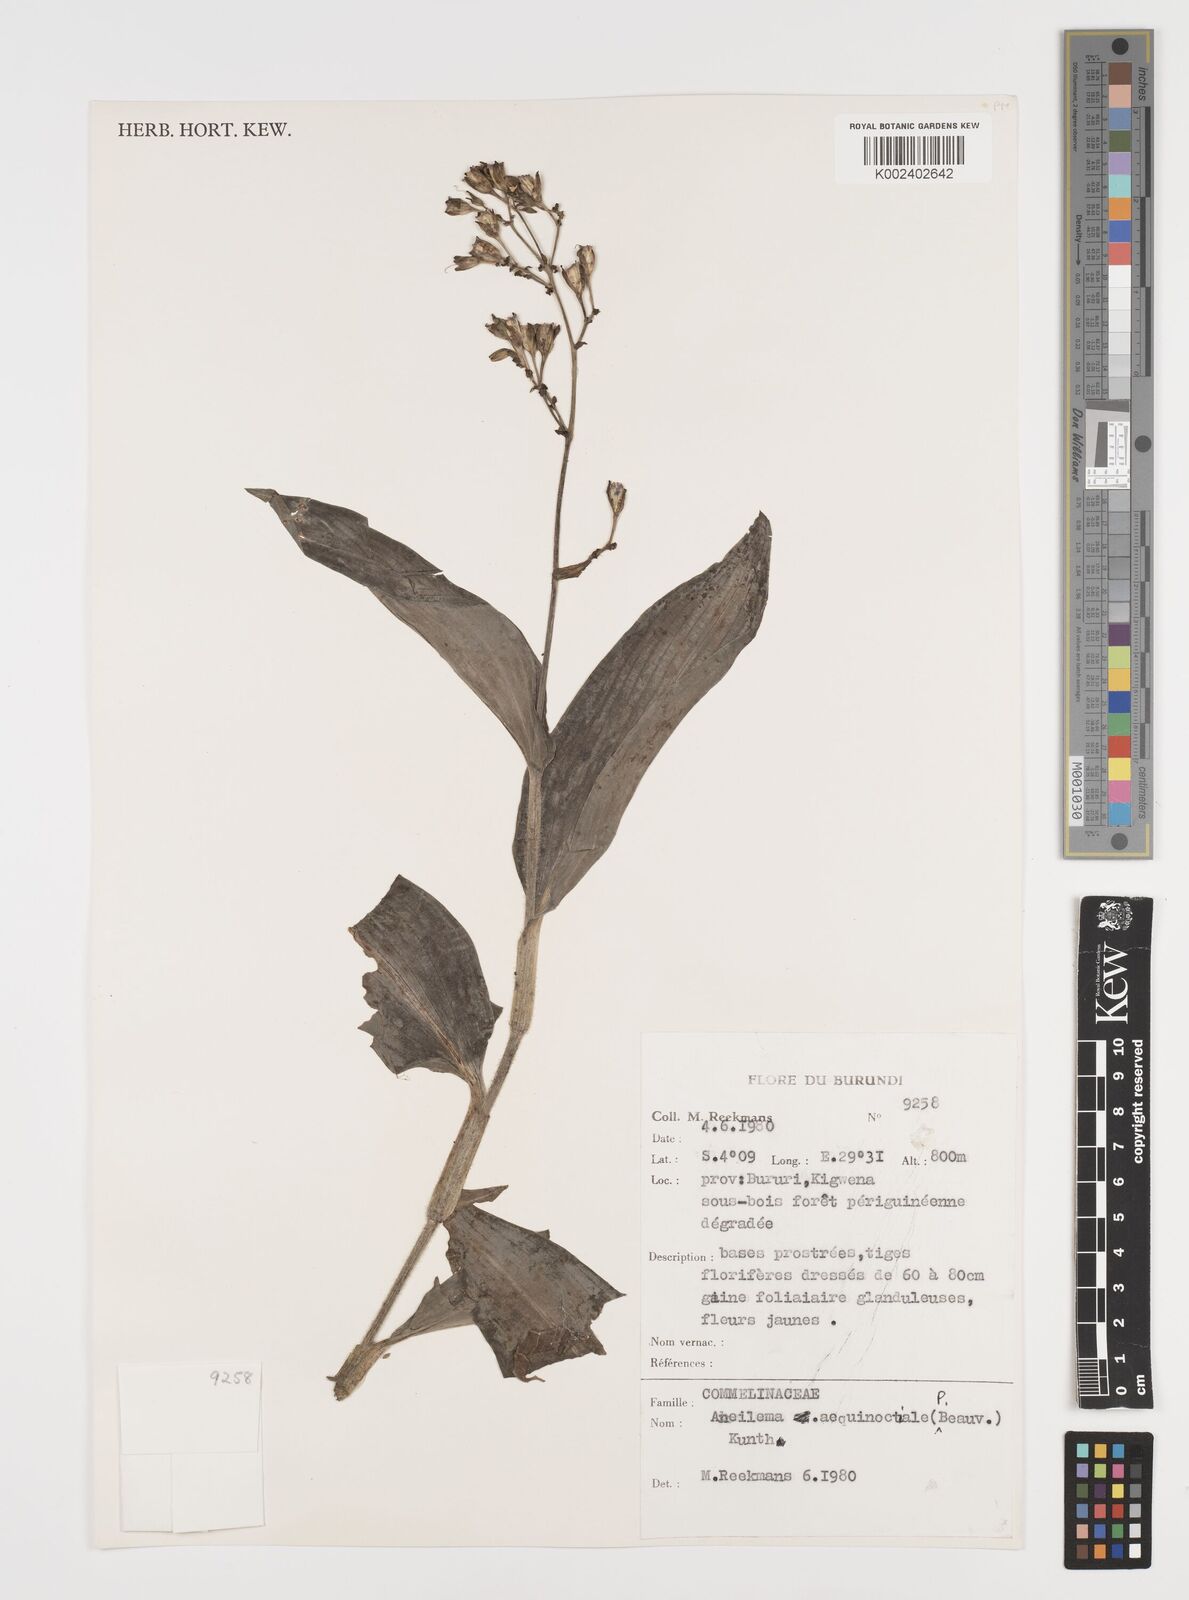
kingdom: Plantae
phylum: Tracheophyta
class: Liliopsida
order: Commelinales
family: Commelinaceae
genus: Aneilema
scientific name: Aneilema aequinoctiale
